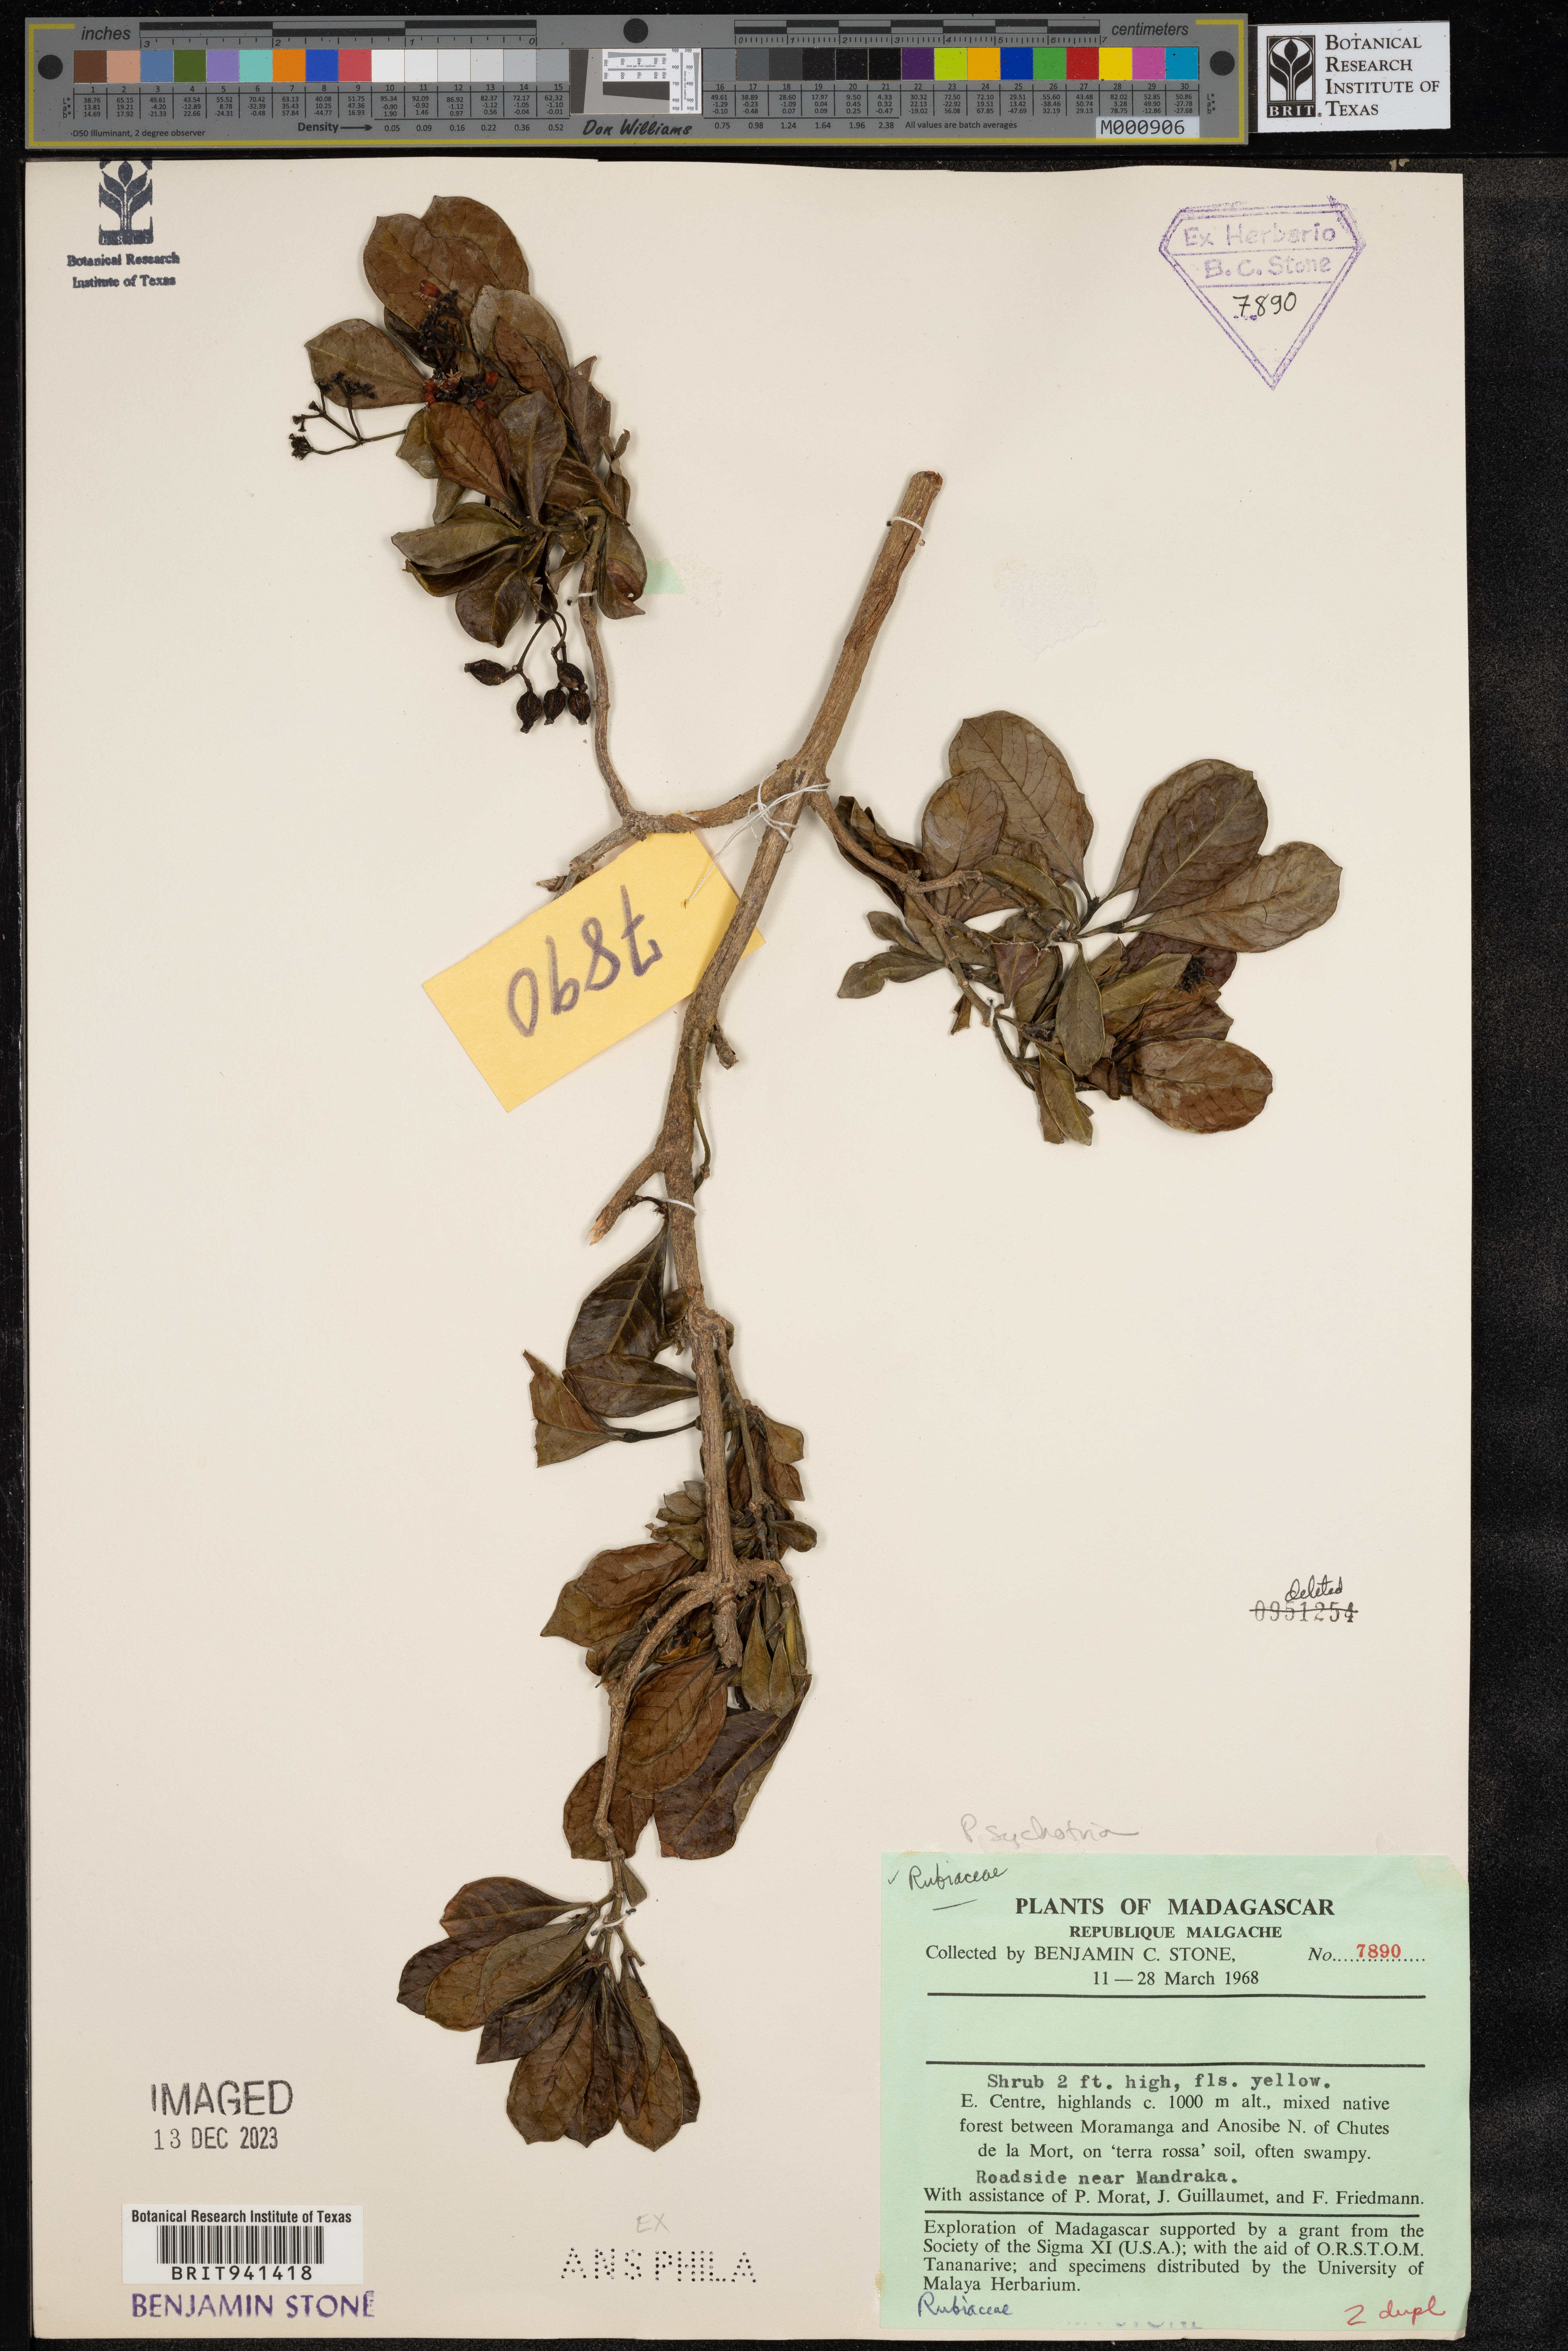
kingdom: Plantae
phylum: Tracheophyta
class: Magnoliopsida
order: Gentianales
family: Rubiaceae
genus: Psychotria
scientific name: Psychotria
